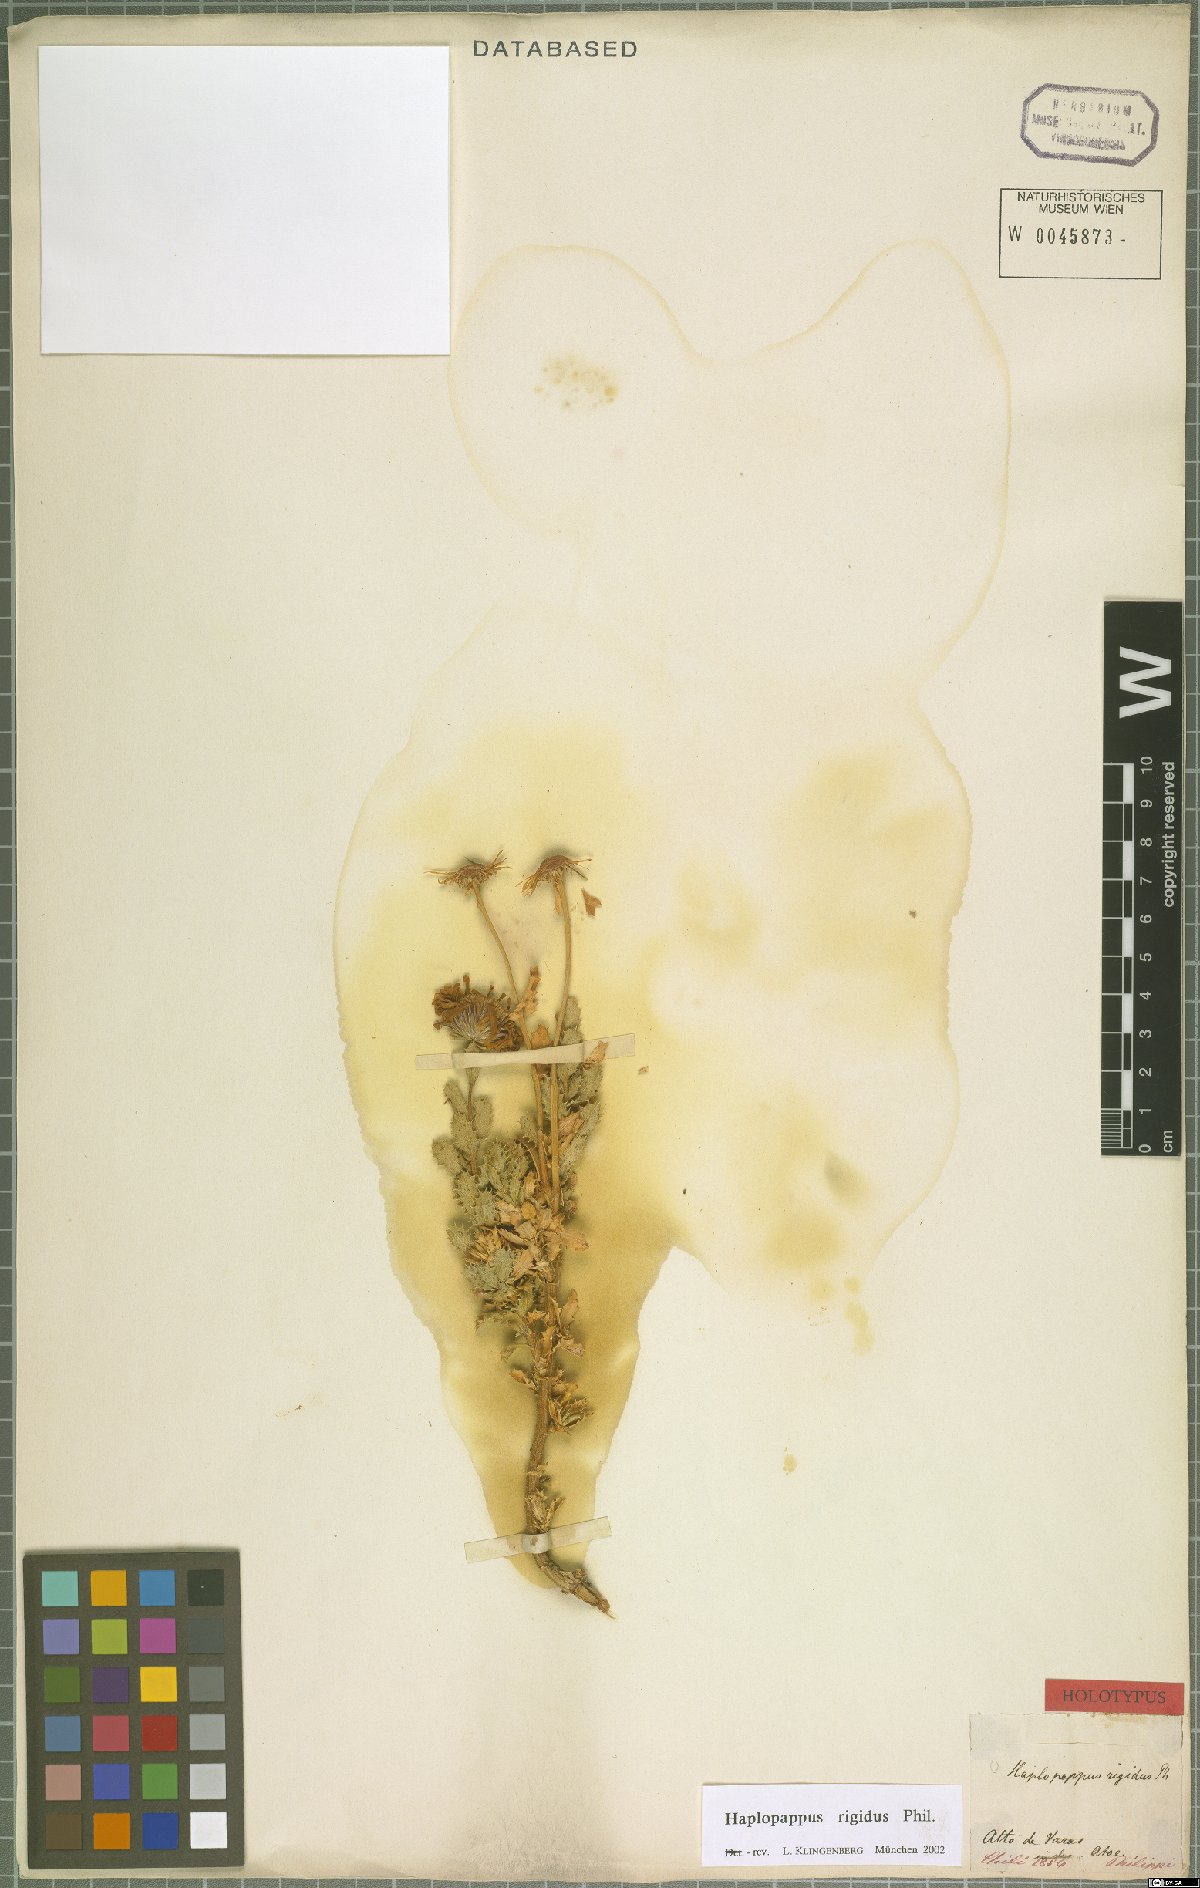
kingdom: Plantae
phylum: Tracheophyta
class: Magnoliopsida
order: Asterales
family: Asteraceae
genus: Haplopappus
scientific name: Haplopappus rigidus
